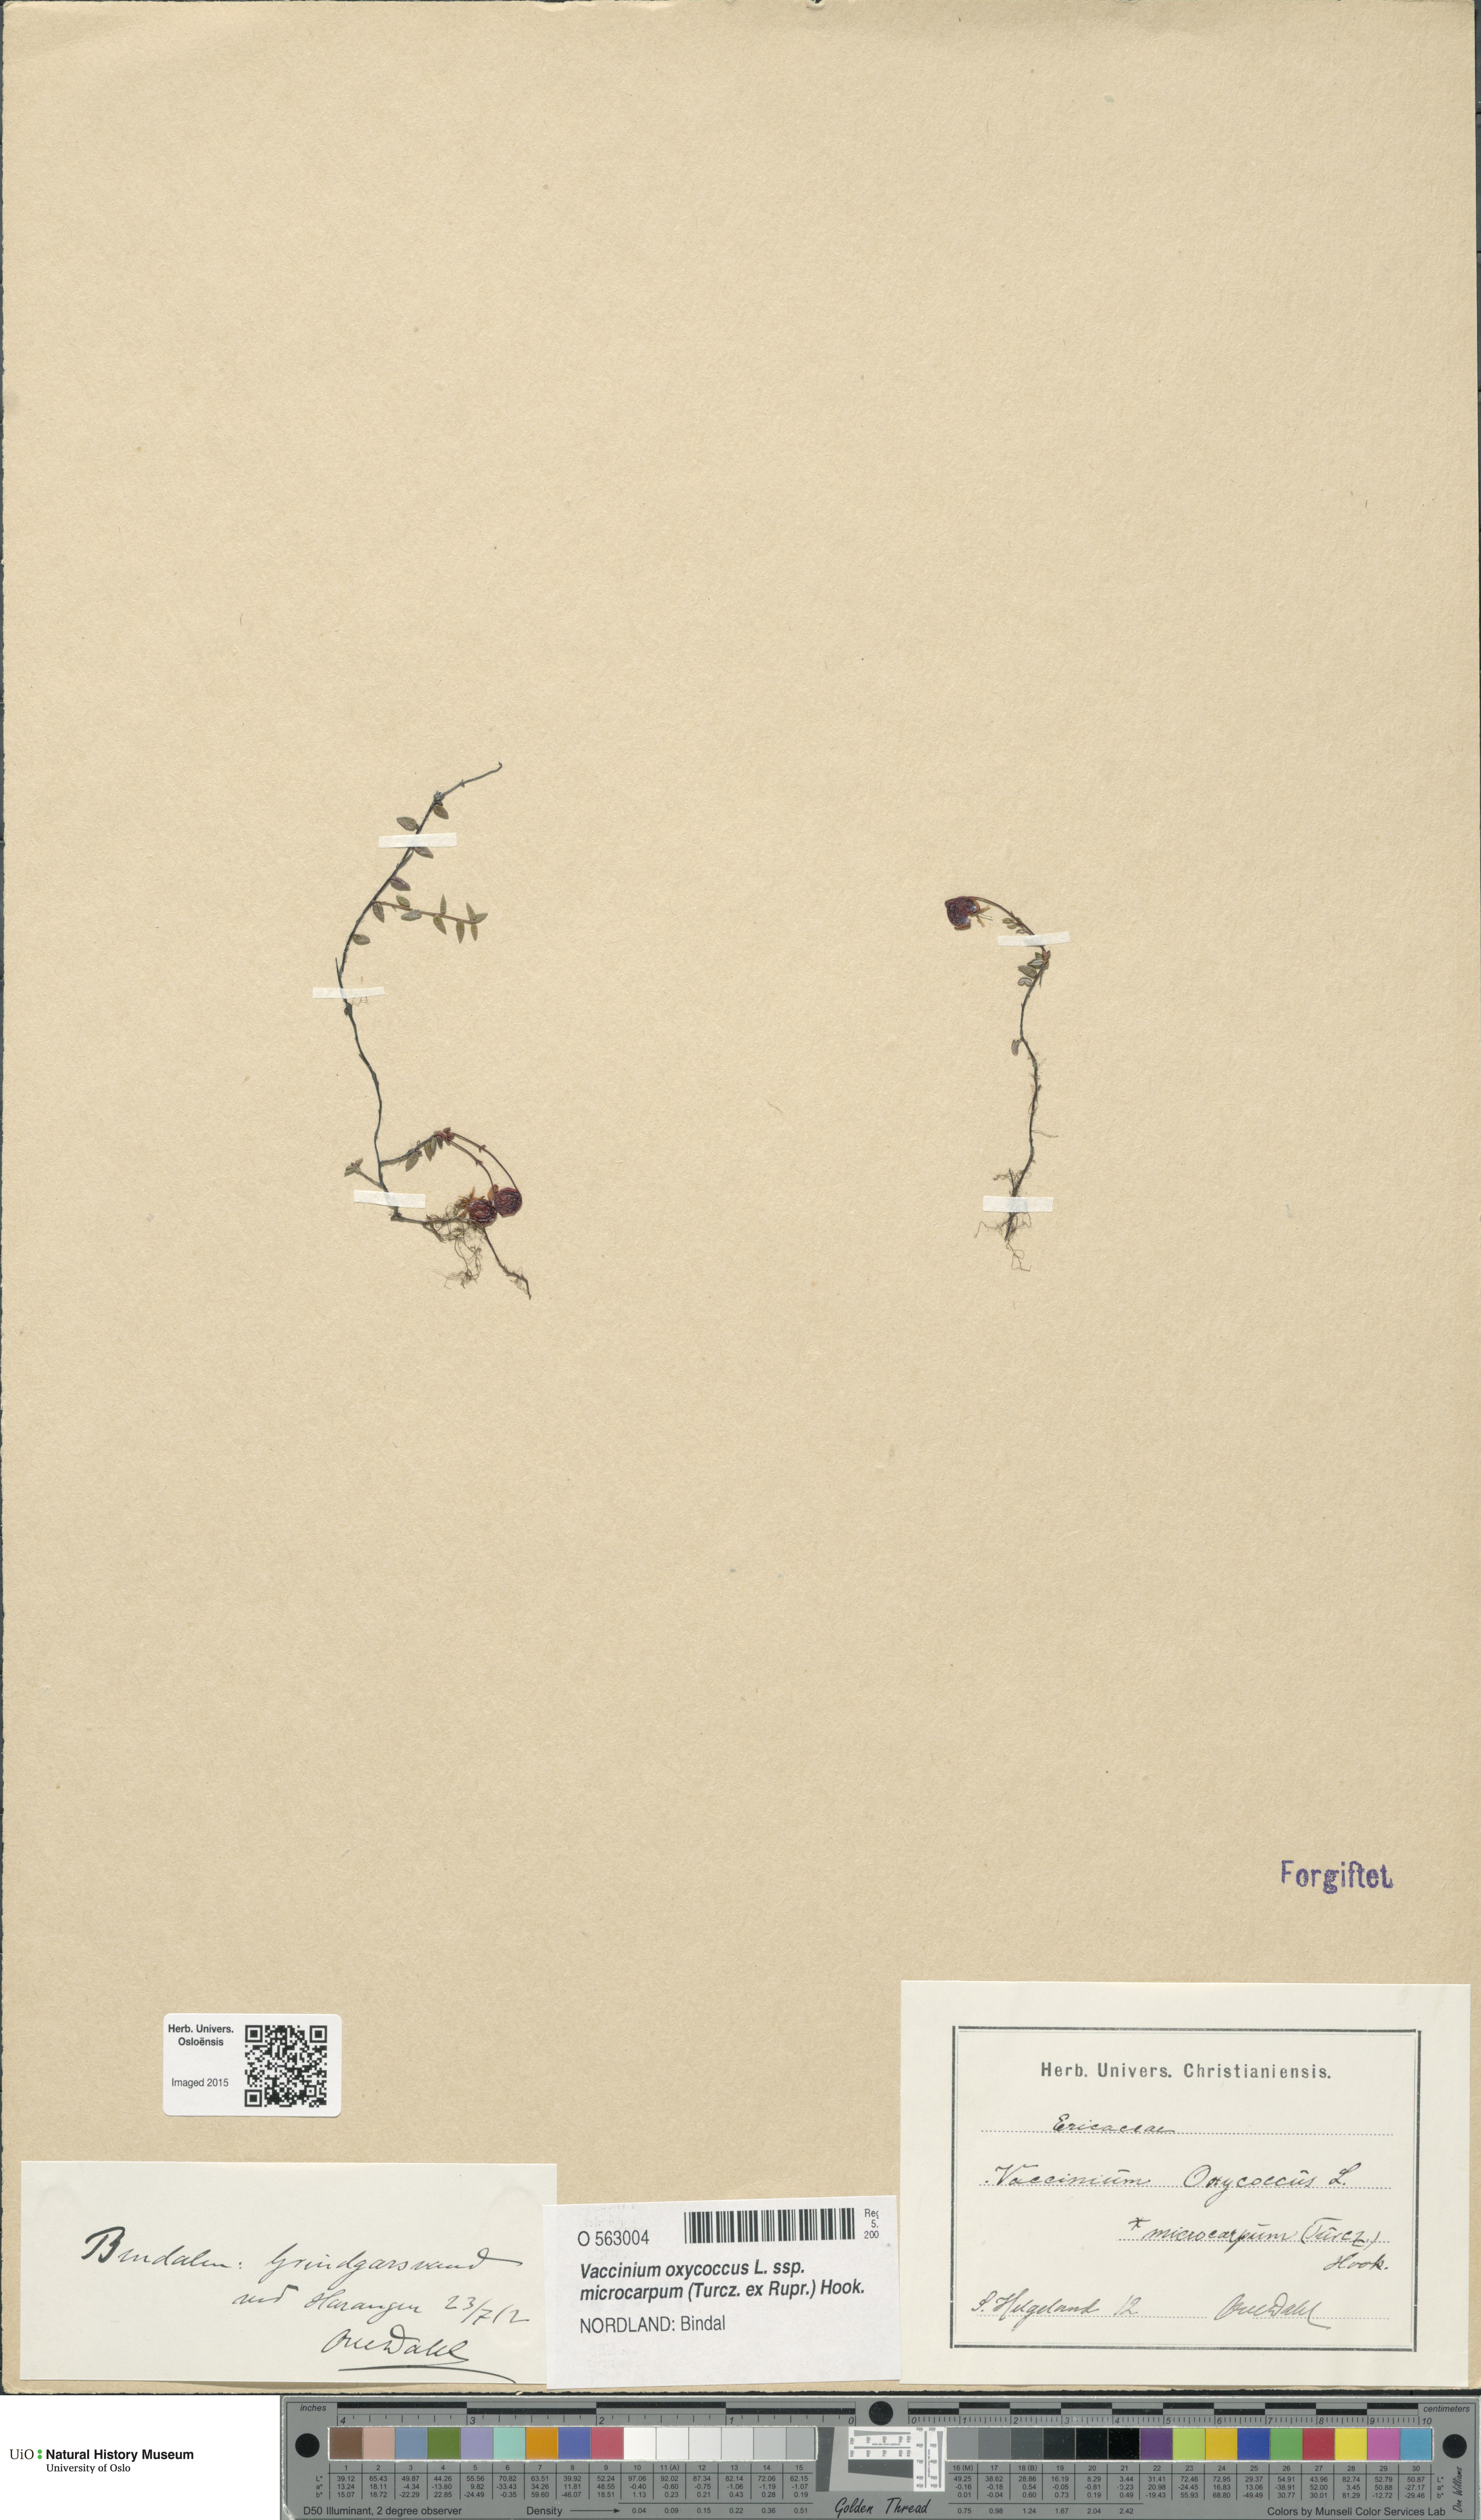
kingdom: Plantae
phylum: Tracheophyta
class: Magnoliopsida
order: Ericales
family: Ericaceae
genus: Vaccinium
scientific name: Vaccinium microcarpum
